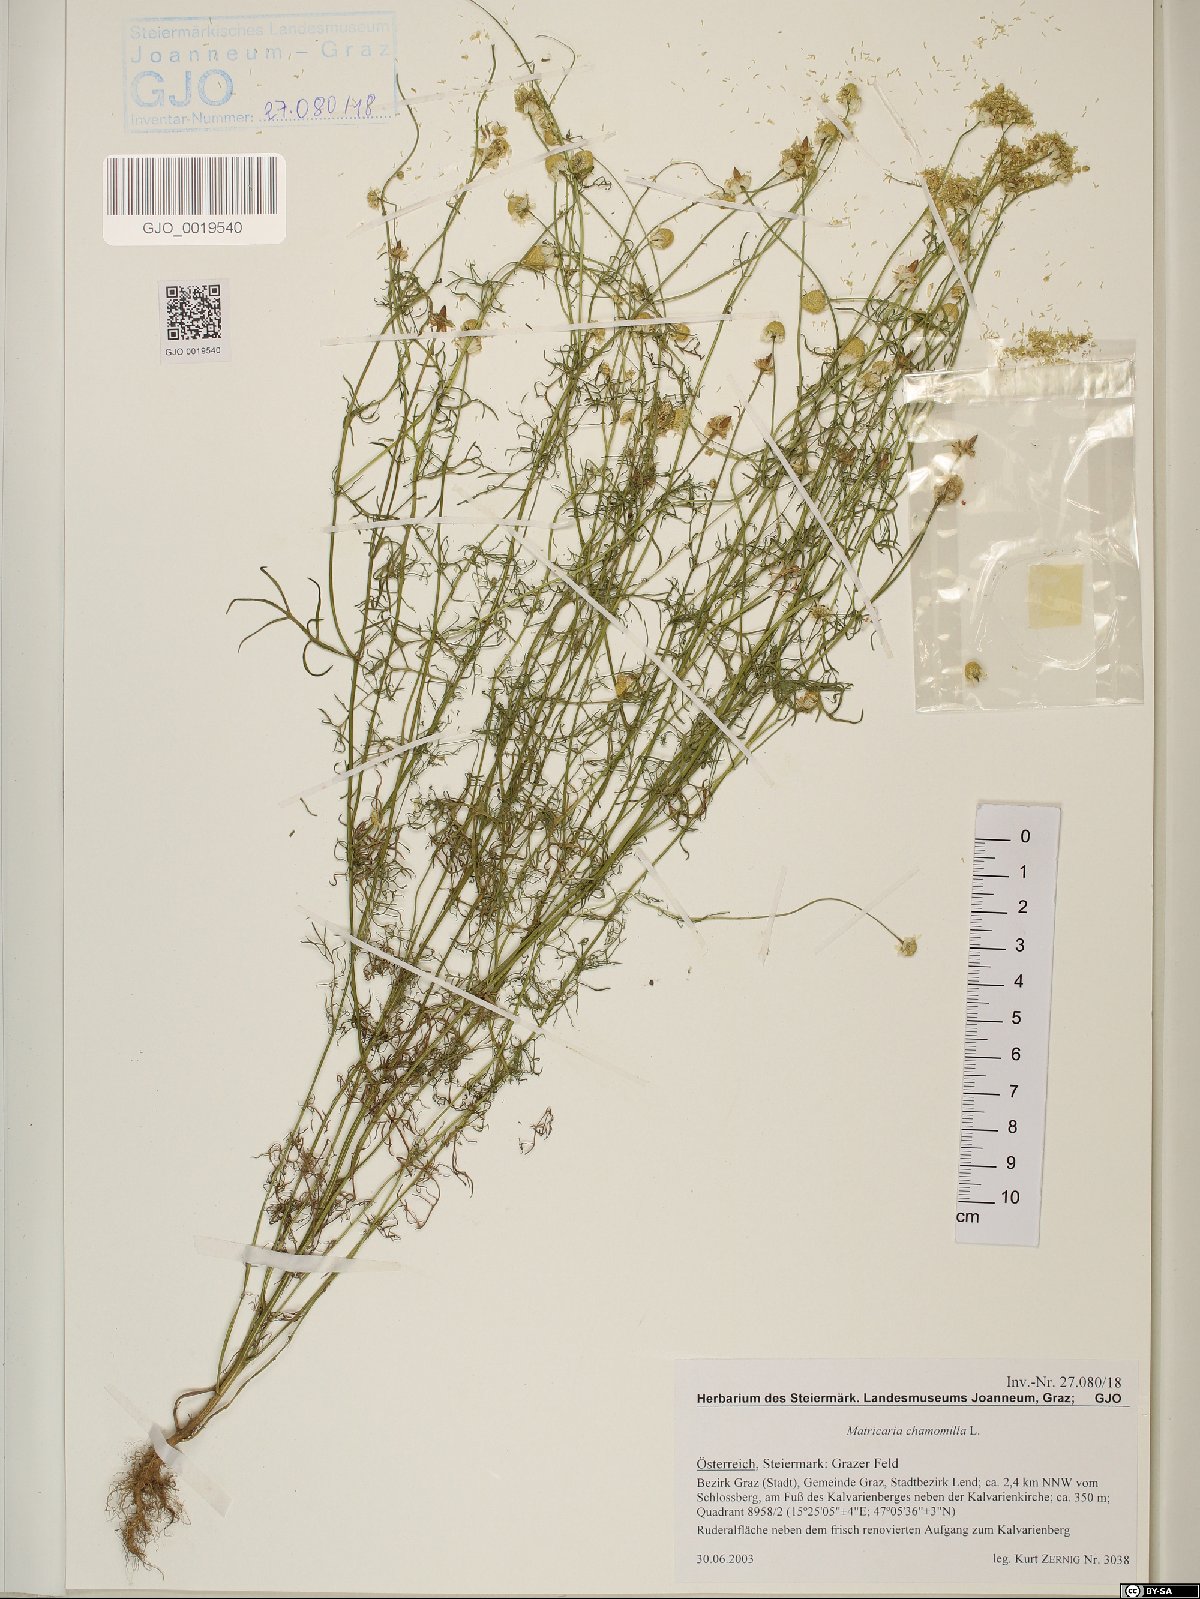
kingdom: Plantae
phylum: Tracheophyta
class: Magnoliopsida
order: Asterales
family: Asteraceae
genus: Matricaria
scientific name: Matricaria chamomilla
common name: Scented mayweed
